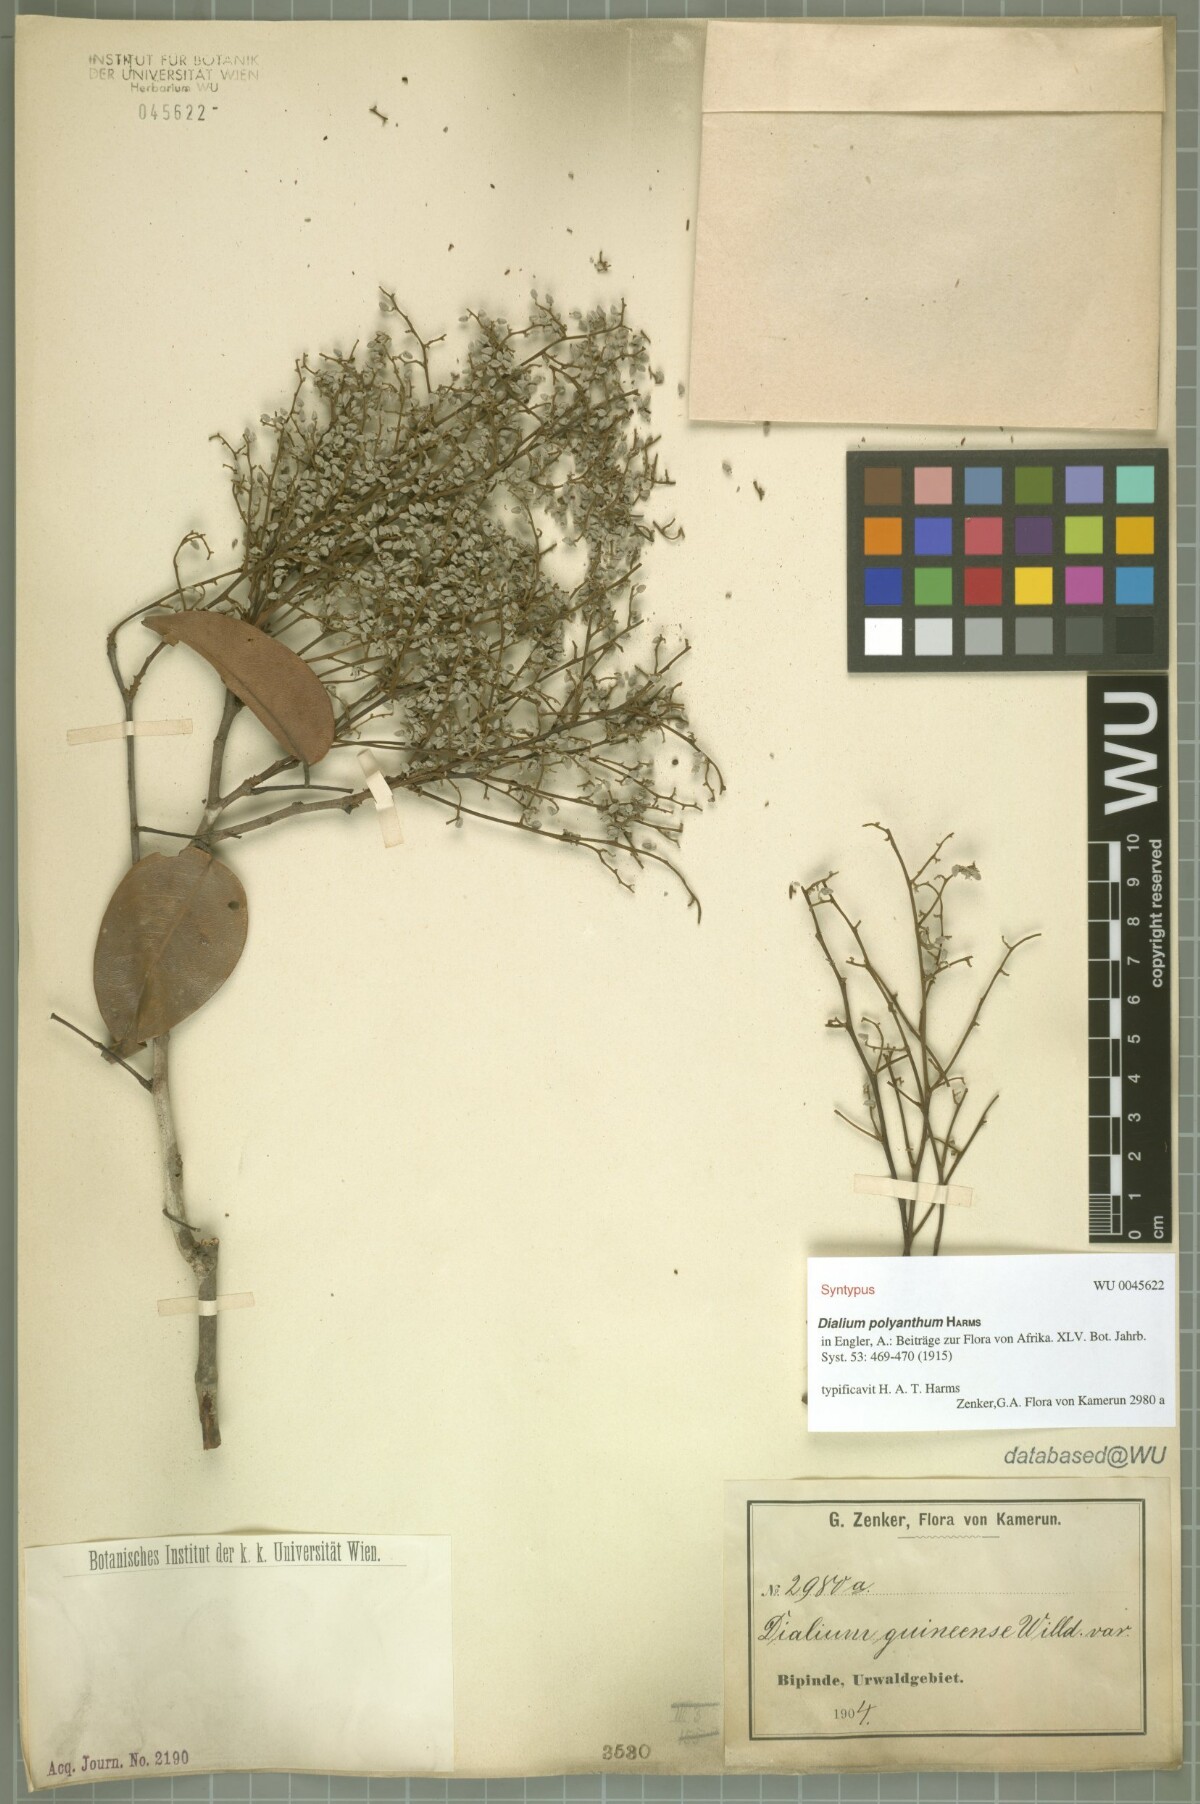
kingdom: Plantae
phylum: Tracheophyta
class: Magnoliopsida
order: Fabales
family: Fabaceae
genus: Dialium
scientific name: Dialium polyanthum
